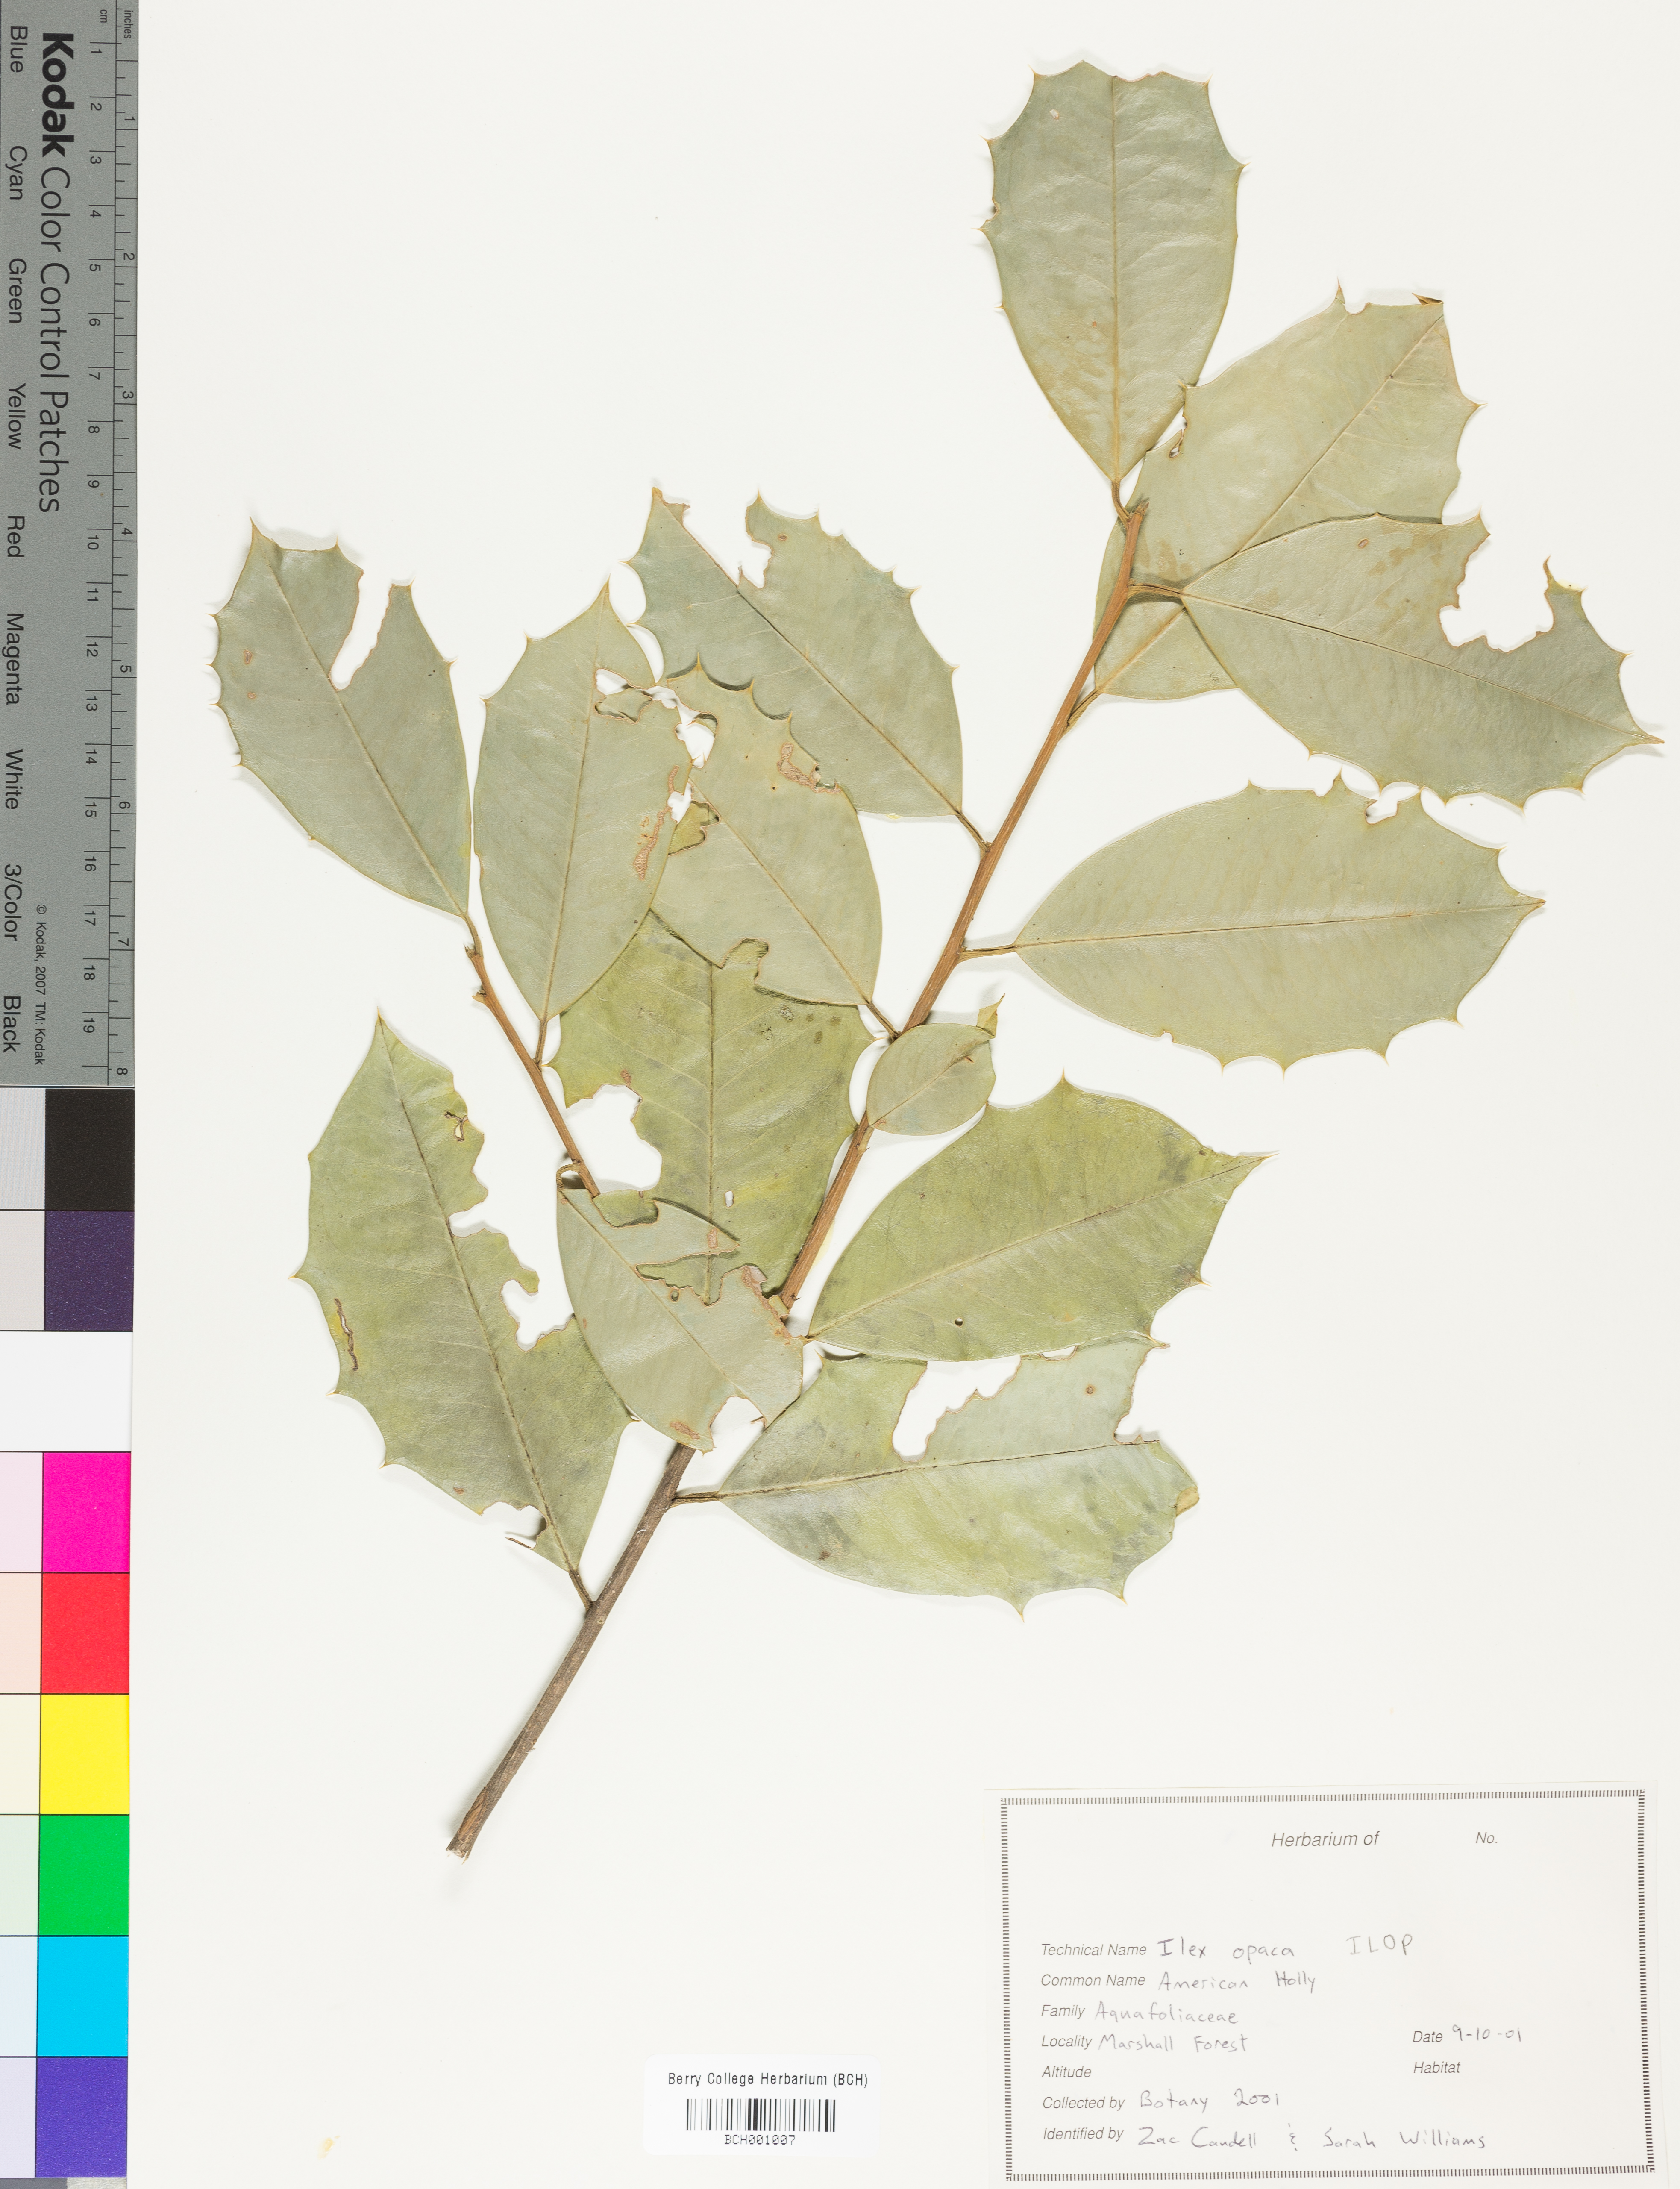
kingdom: Plantae
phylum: Tracheophyta
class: Magnoliopsida
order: Aquifoliales
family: Aquifoliaceae
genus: Ilex
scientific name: Ilex opaca
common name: American holly
